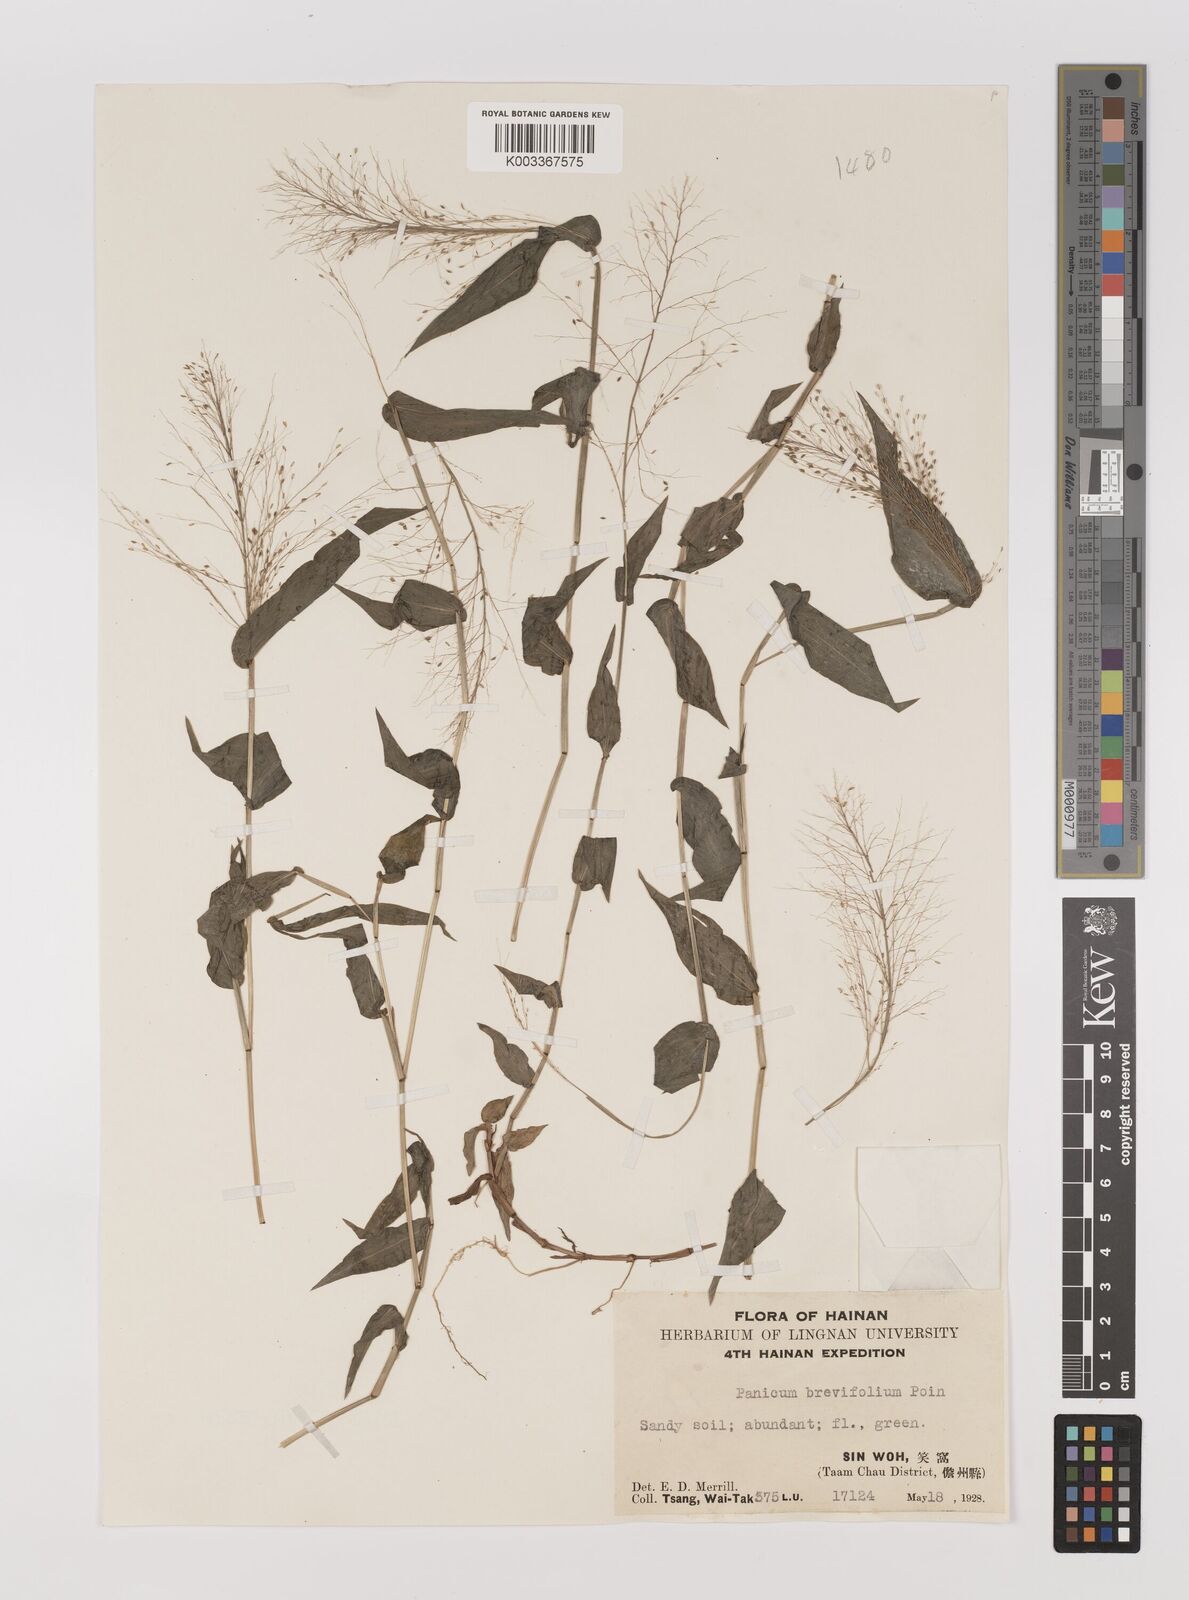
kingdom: Plantae
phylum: Tracheophyta
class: Liliopsida
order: Poales
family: Poaceae
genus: Panicum
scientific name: Panicum brevifolium
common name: Shortleaf panic grass
